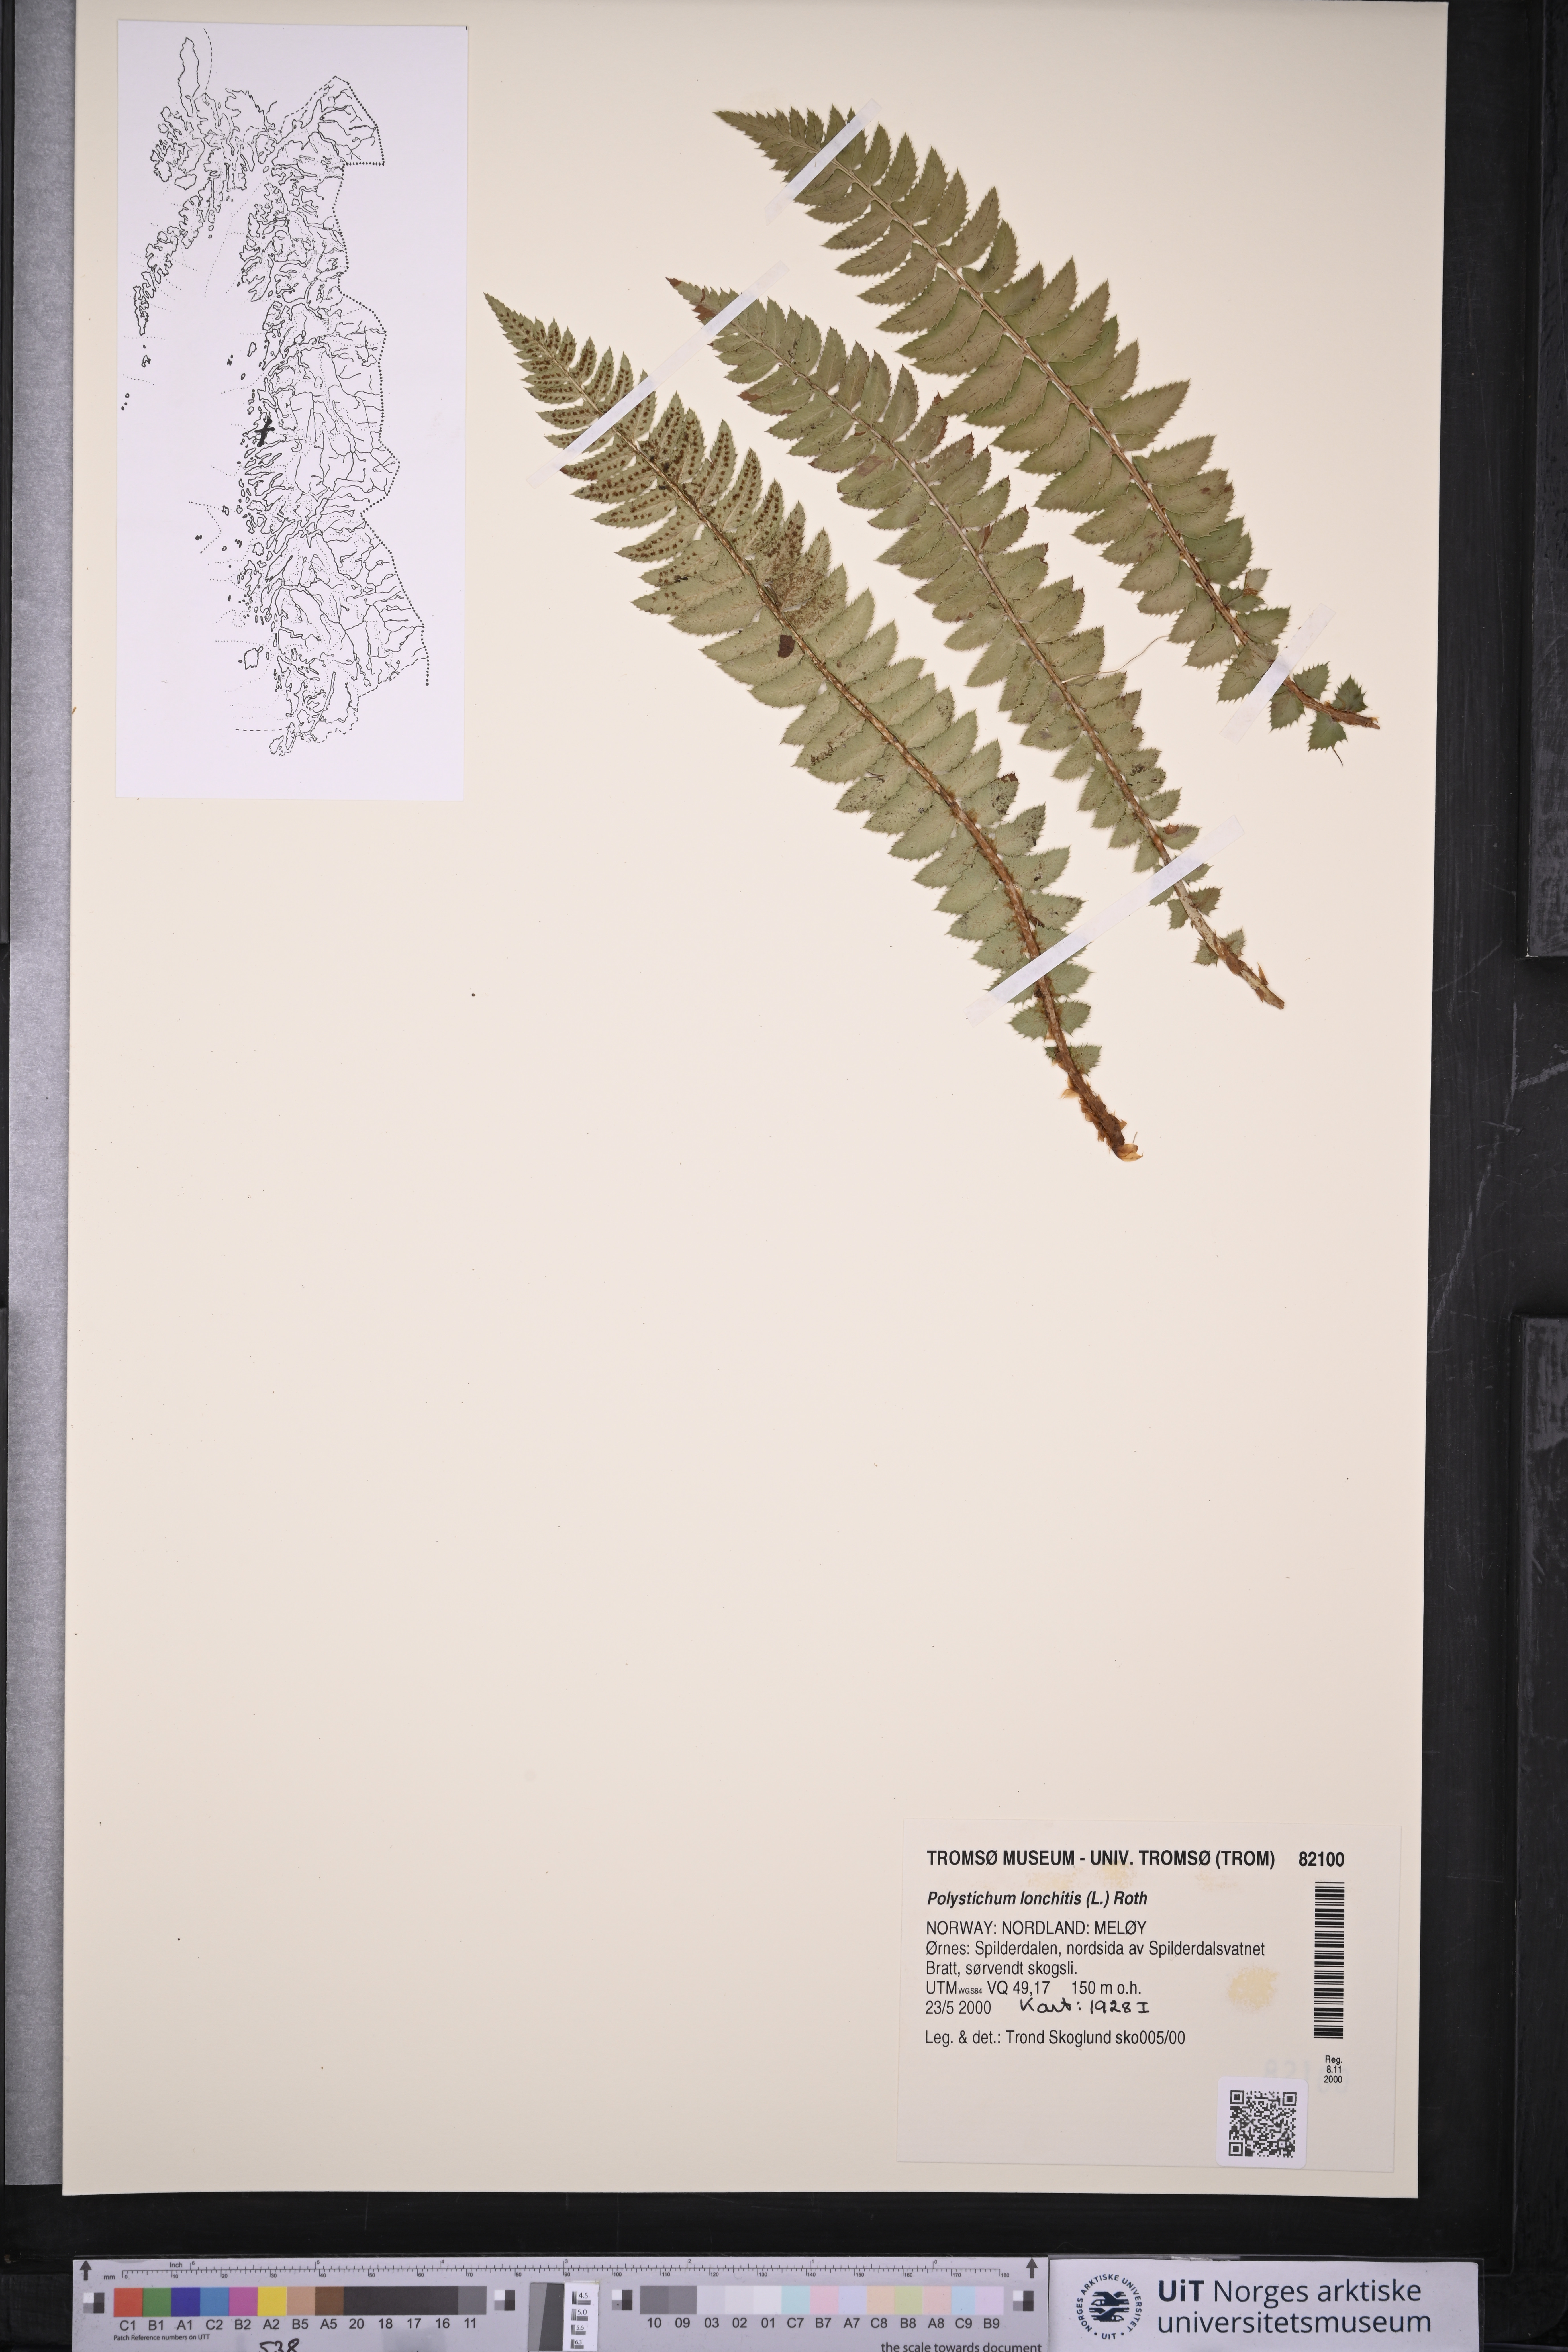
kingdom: Plantae
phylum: Tracheophyta
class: Polypodiopsida
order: Polypodiales
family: Dryopteridaceae
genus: Polystichum
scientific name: Polystichum lonchitis
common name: Holly fern
